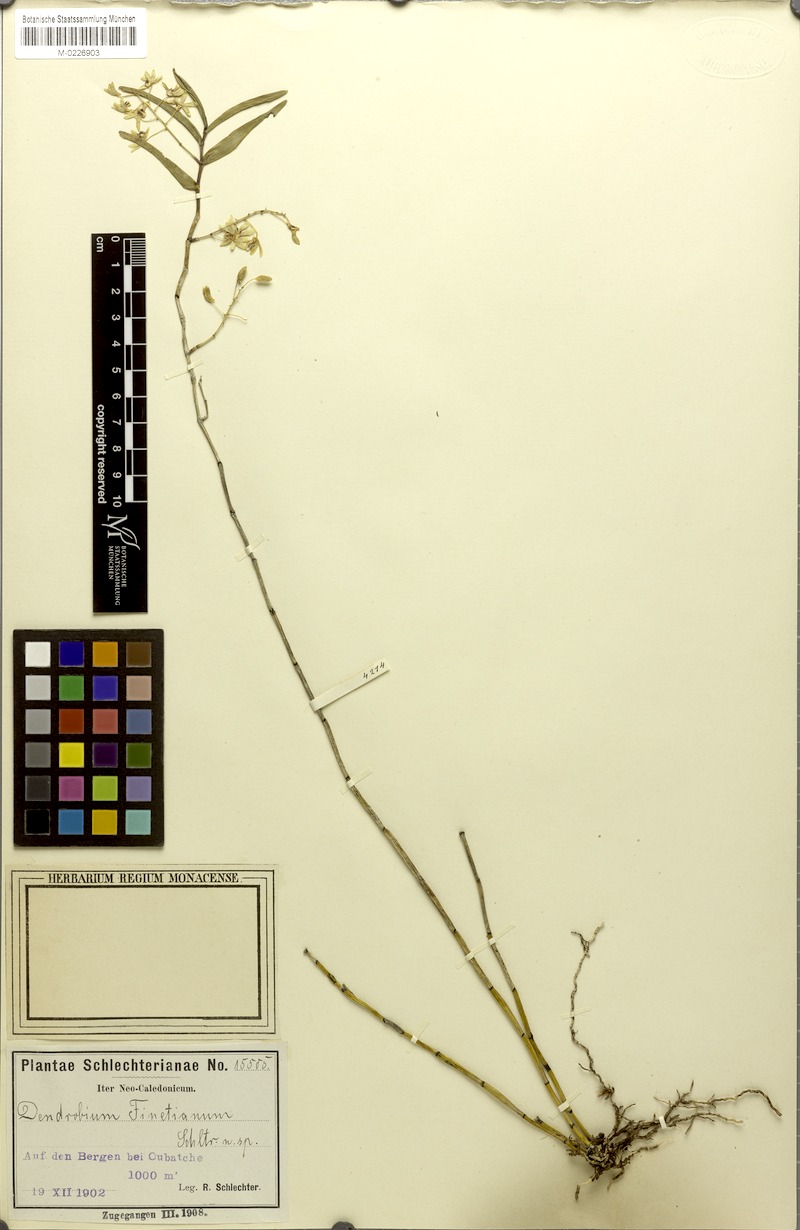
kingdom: Plantae
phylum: Tracheophyta
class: Liliopsida
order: Asparagales
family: Orchidaceae
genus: Dendrobium
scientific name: Dendrobium finetianum
